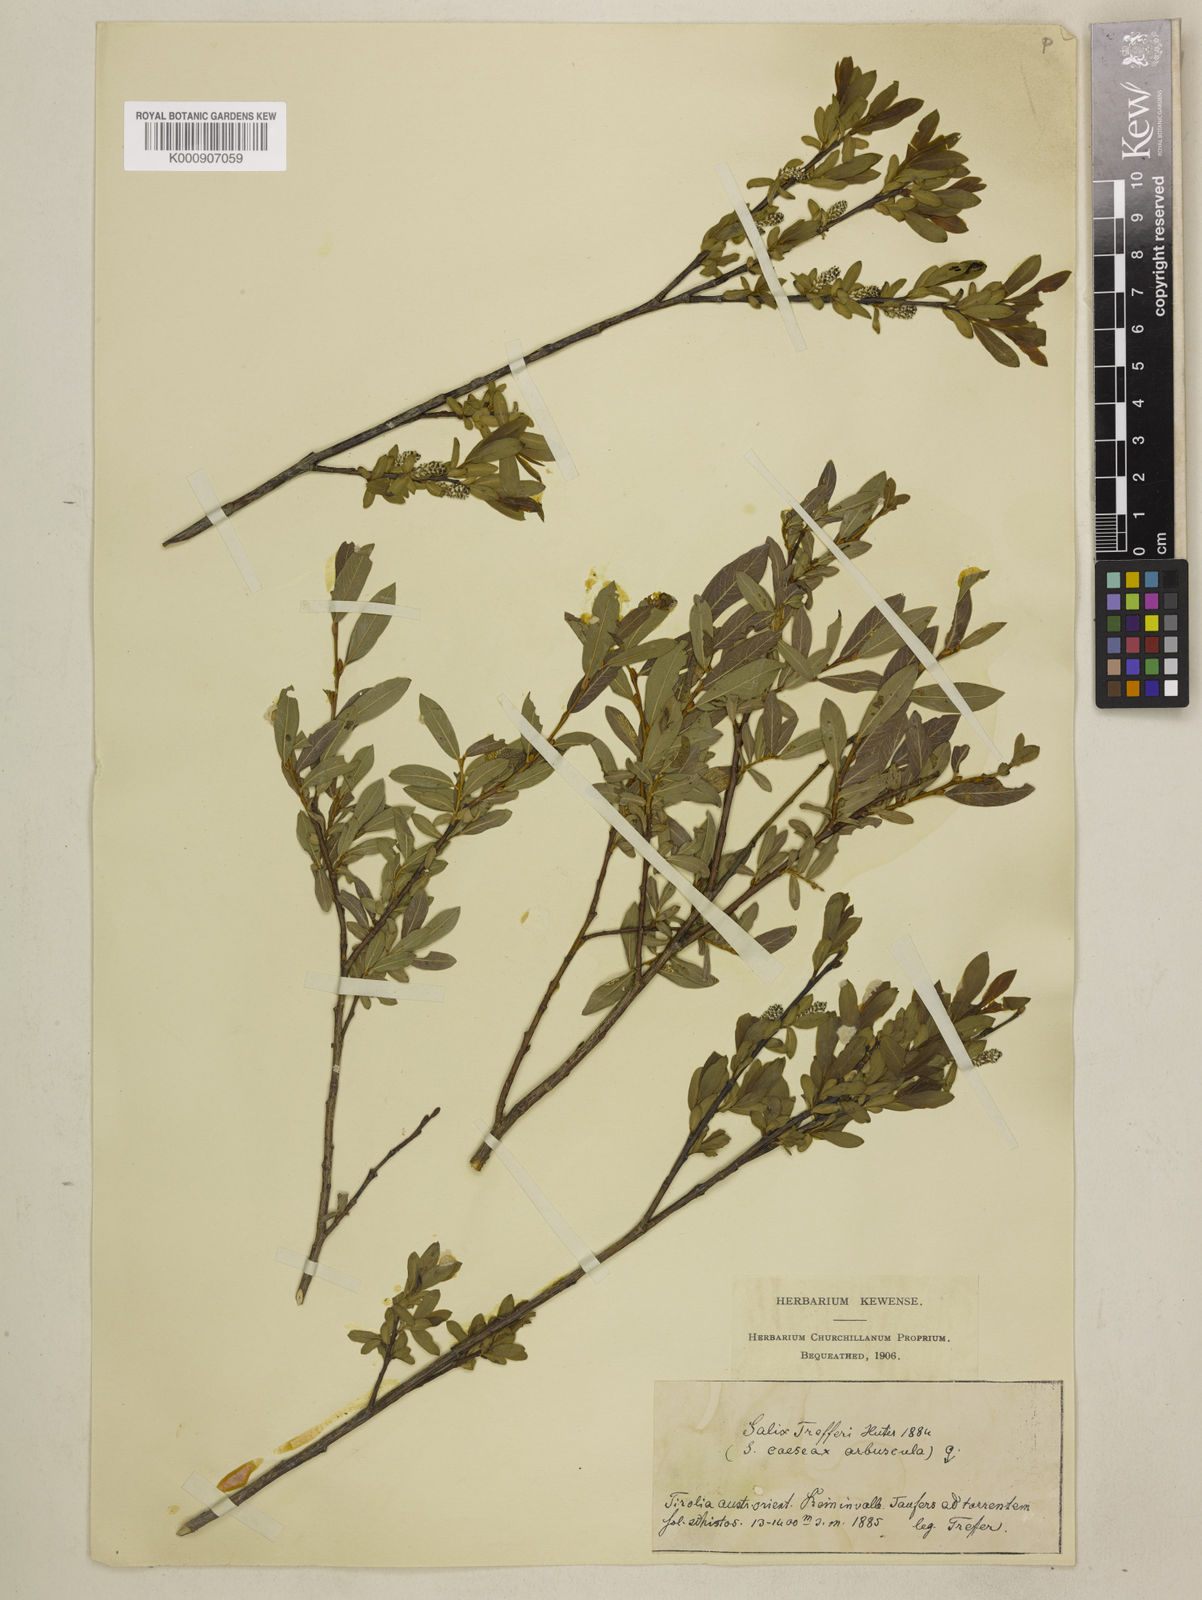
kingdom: Plantae
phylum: Tracheophyta
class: Magnoliopsida
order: Malpighiales
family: Salicaceae
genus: Salix
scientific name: Salix
